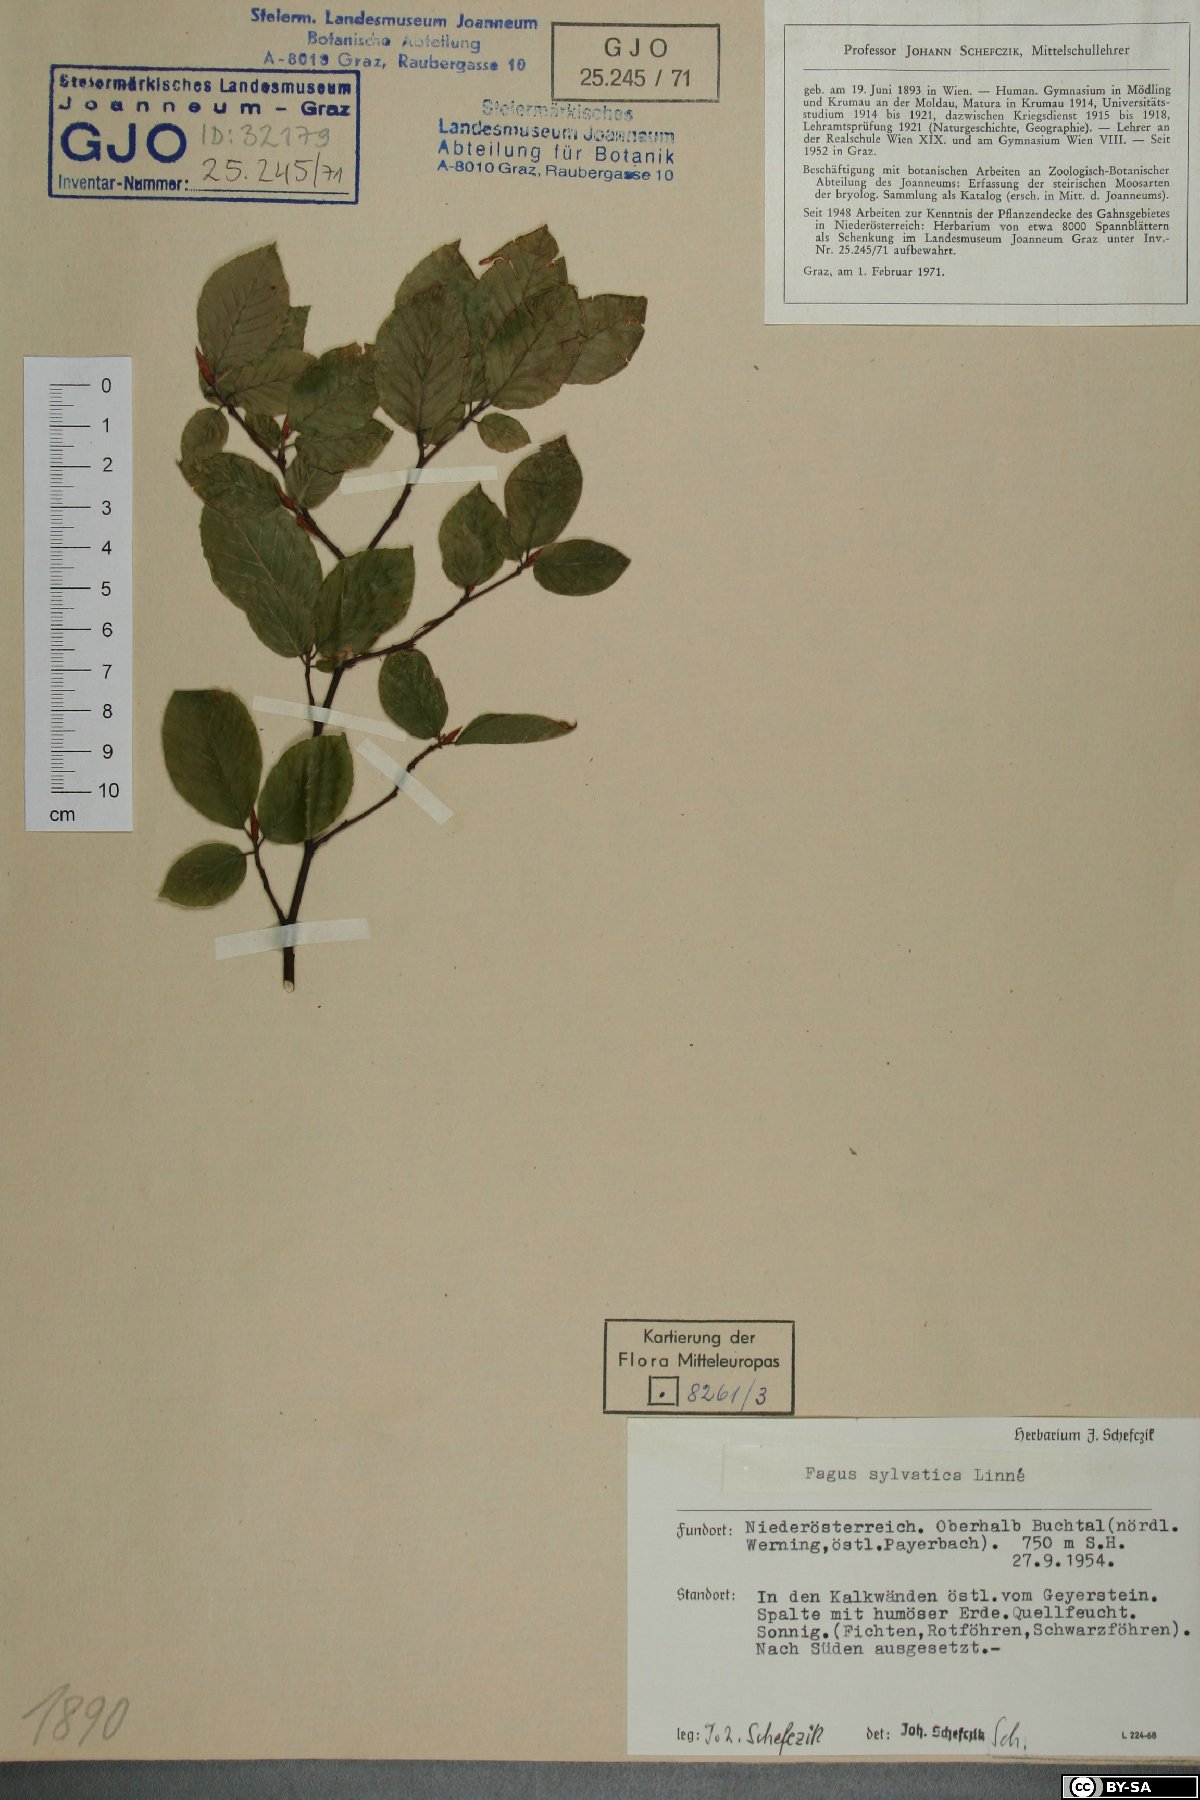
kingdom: Plantae
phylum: Tracheophyta
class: Magnoliopsida
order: Fagales
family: Fagaceae
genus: Fagus
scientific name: Fagus sylvatica
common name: Beech
